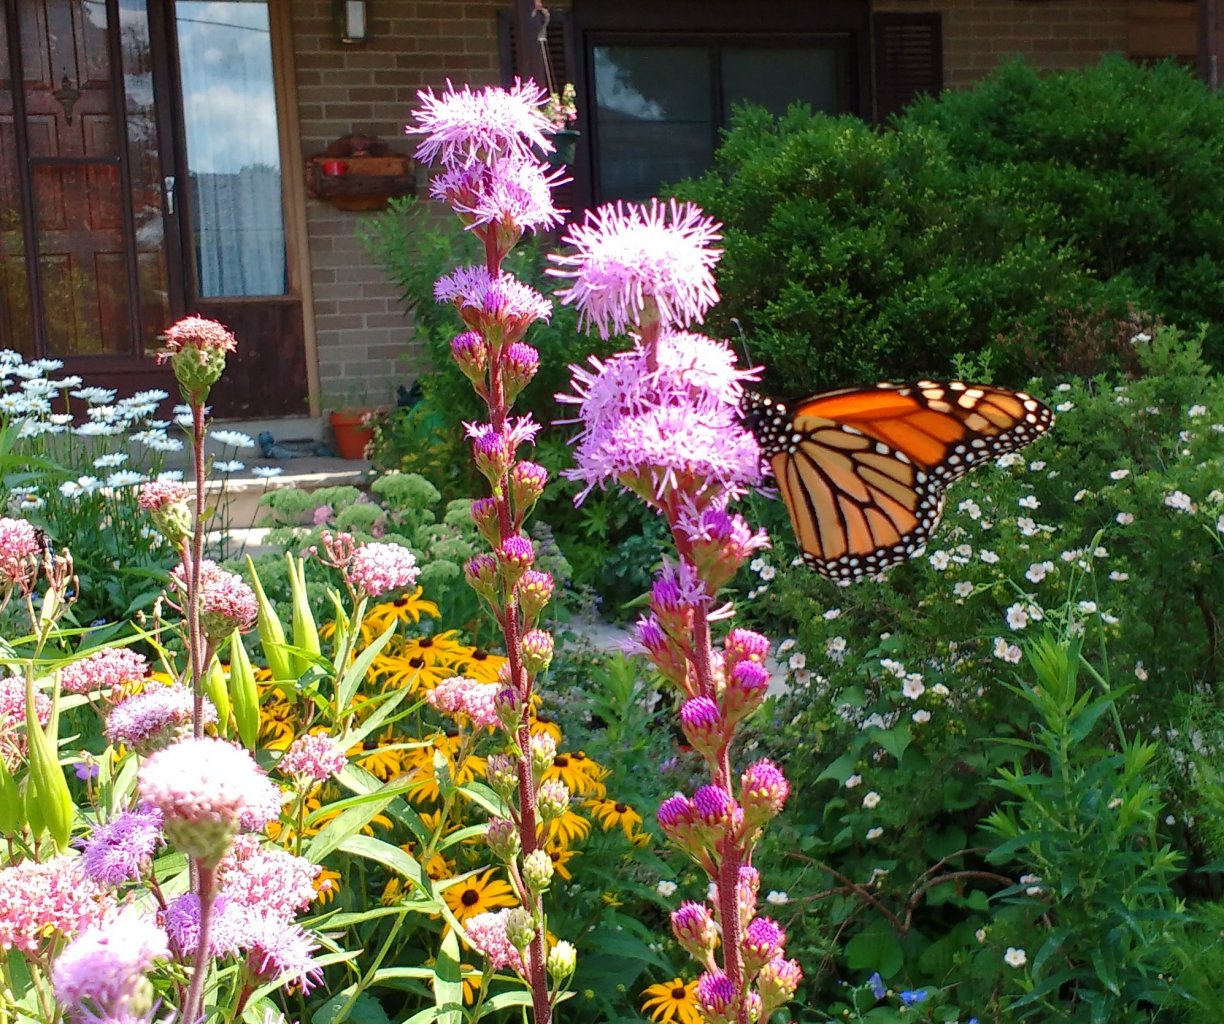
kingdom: Animalia
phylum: Arthropoda
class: Insecta
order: Lepidoptera
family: Nymphalidae
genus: Danaus
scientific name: Danaus plexippus
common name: Monarch
